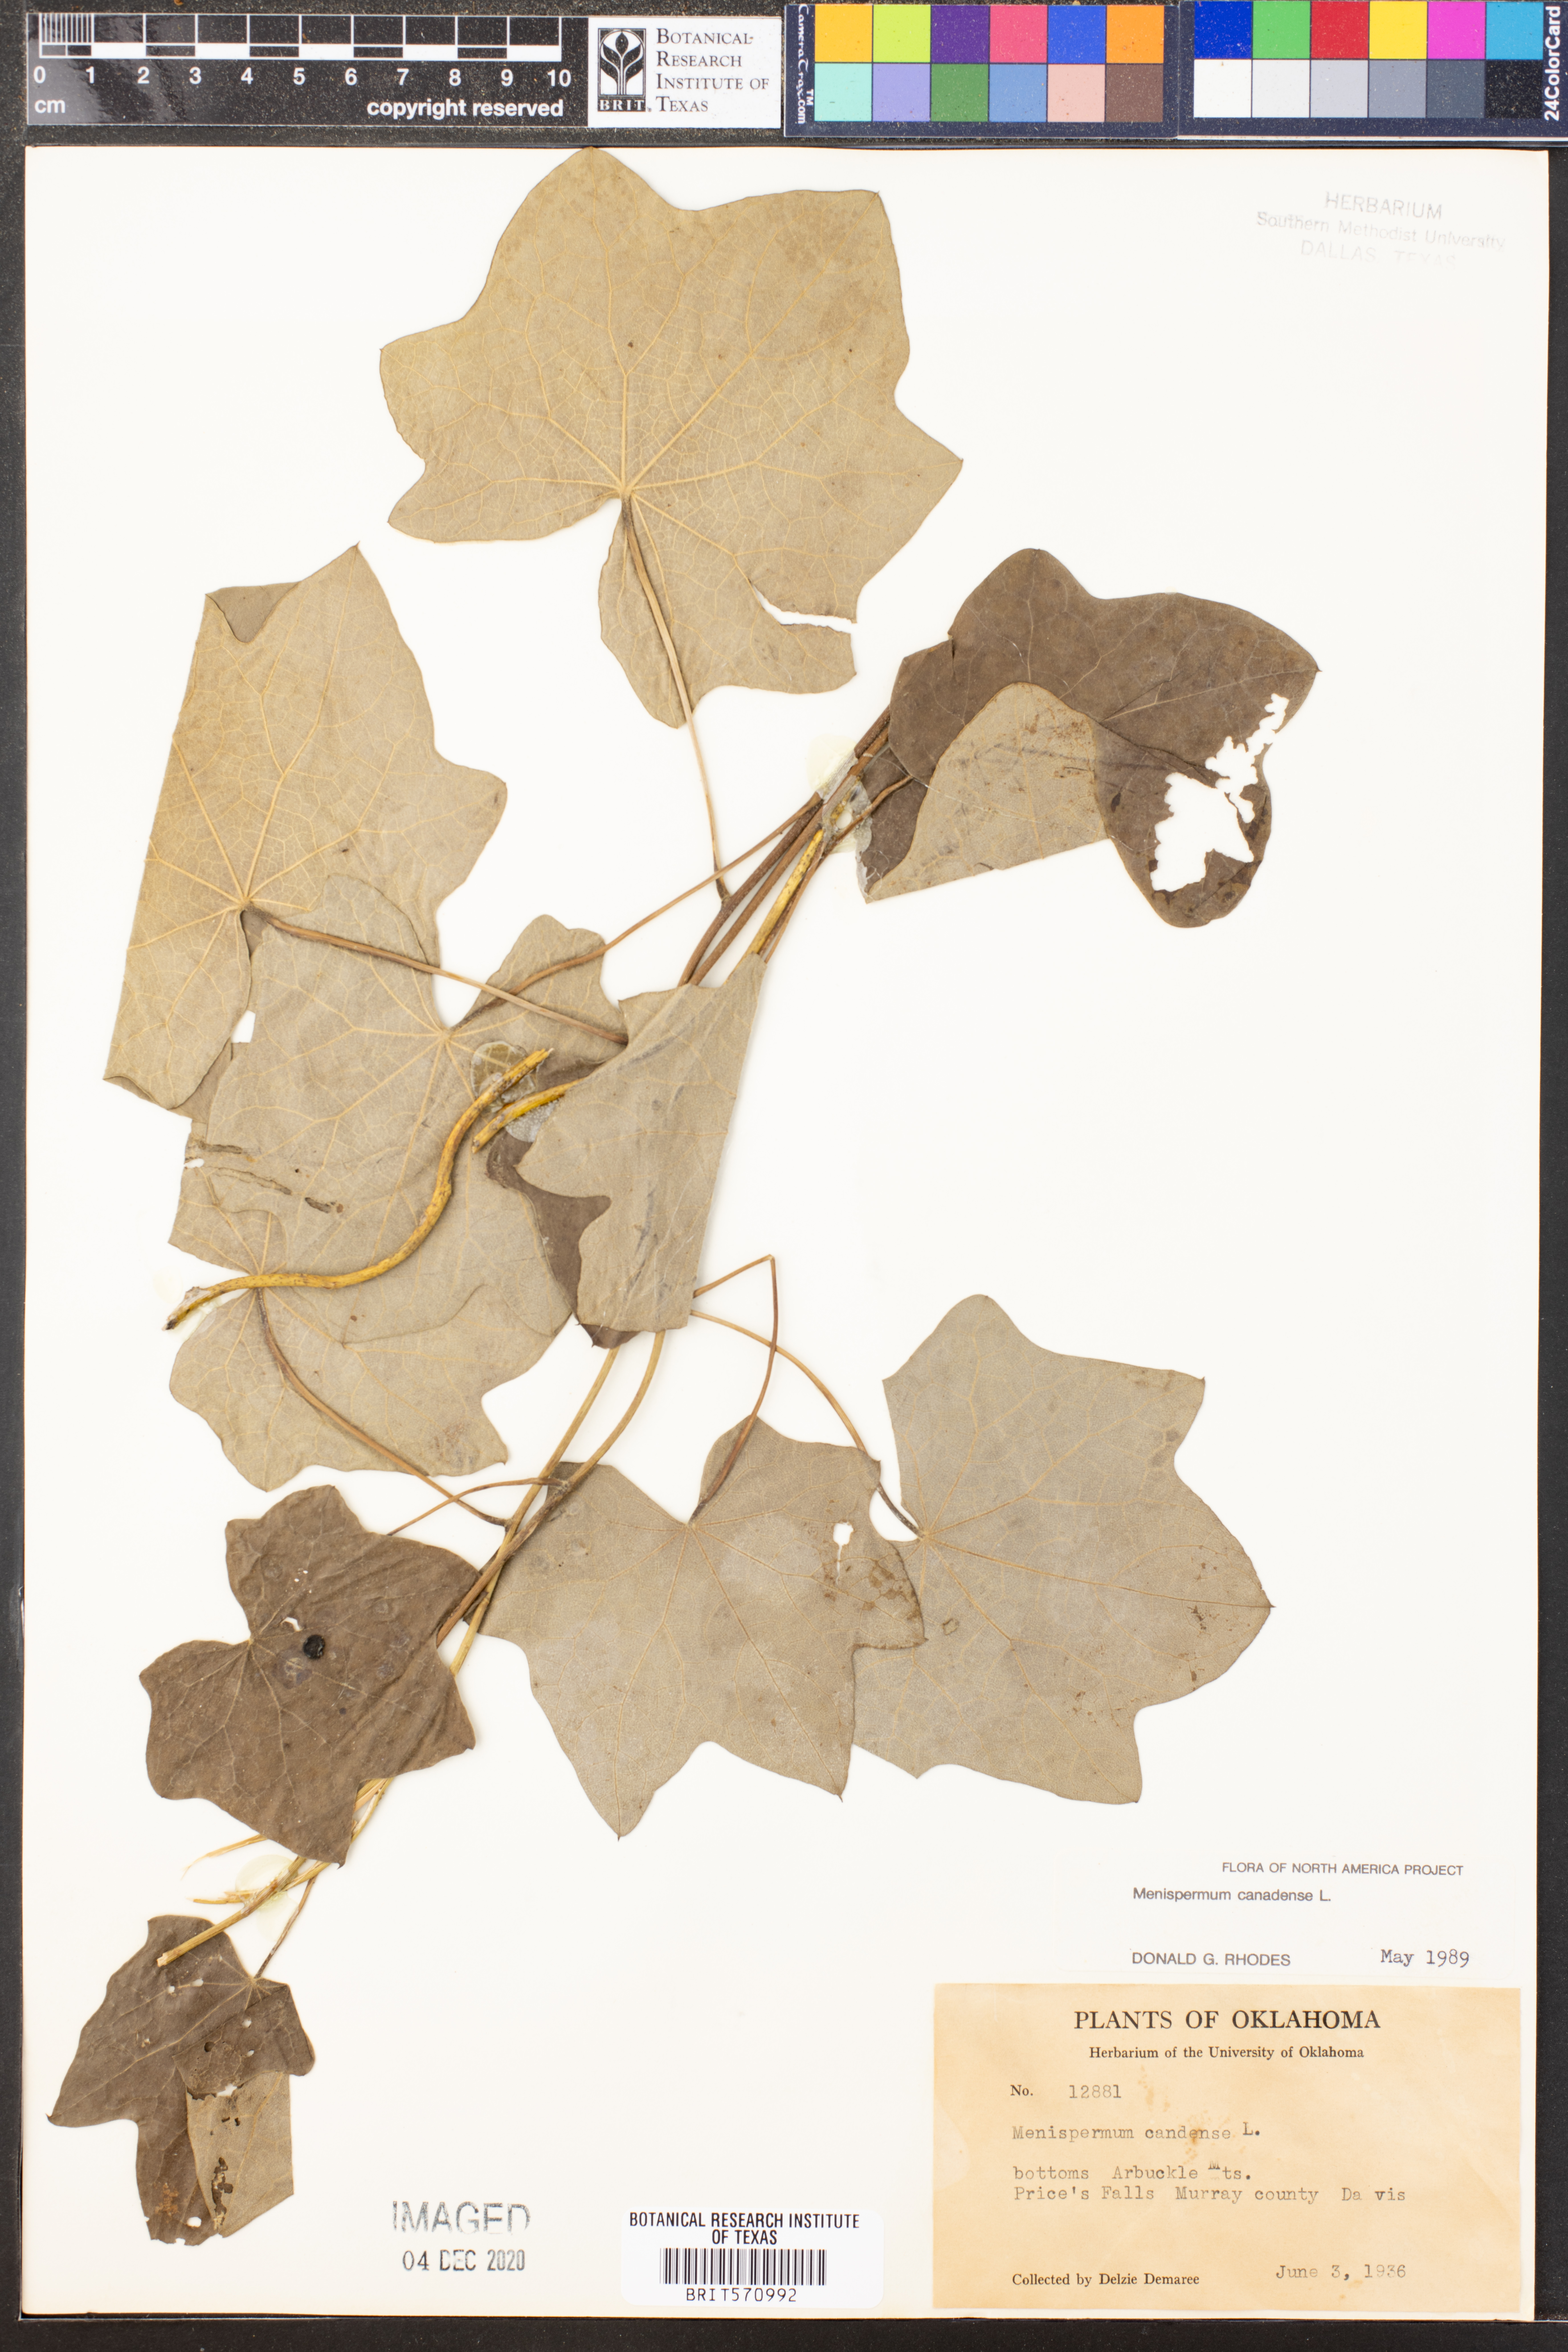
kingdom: Plantae
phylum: Tracheophyta
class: Magnoliopsida
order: Ranunculales
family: Menispermaceae
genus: Menispermum
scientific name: Menispermum canadense
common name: Moonseed
